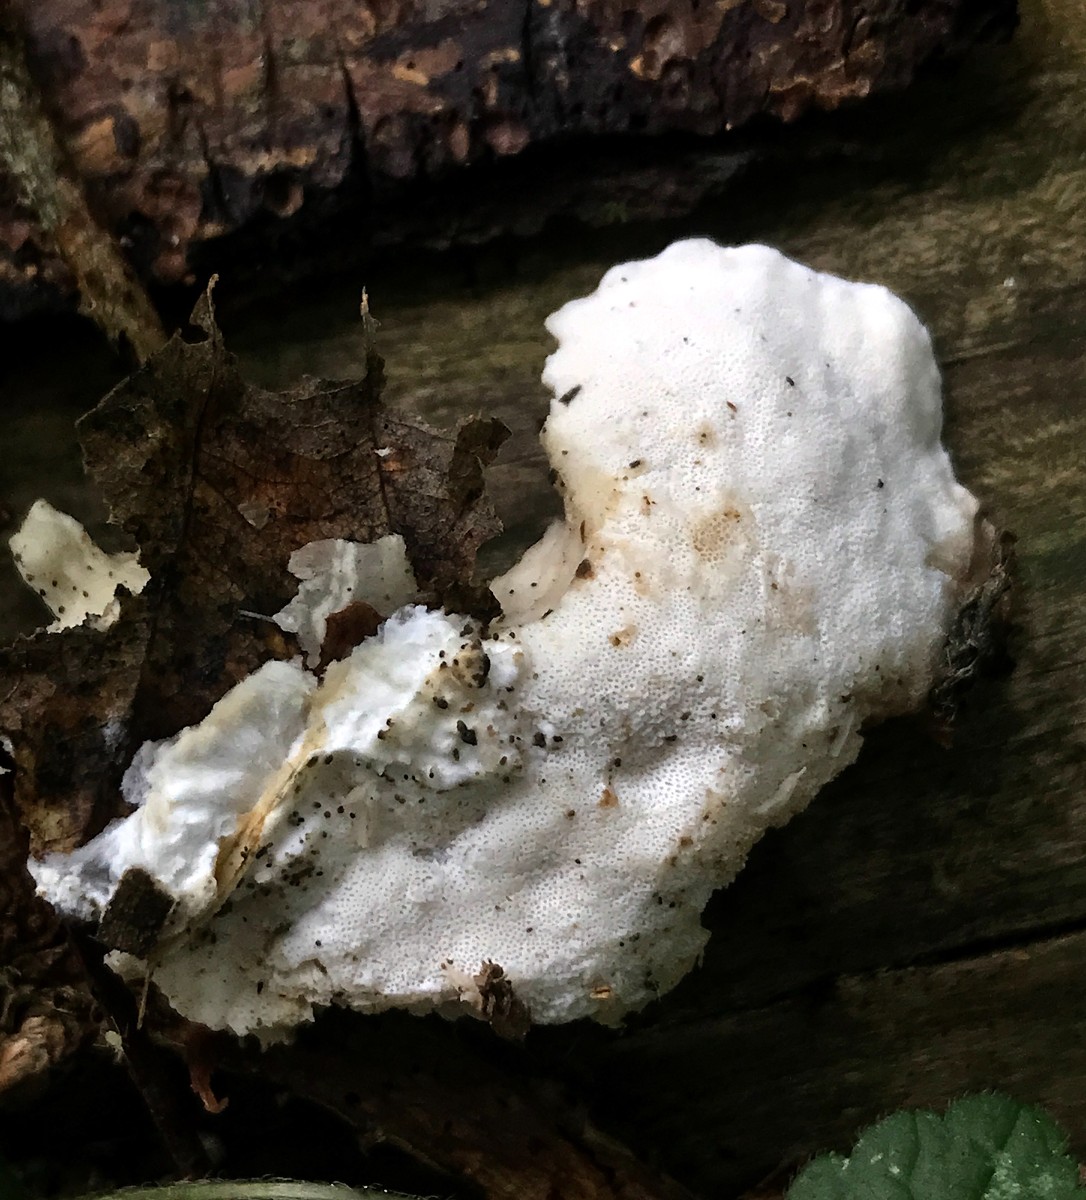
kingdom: Fungi
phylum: Basidiomycota
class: Agaricomycetes
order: Polyporales
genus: Amaropostia
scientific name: Amaropostia stiptica
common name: bitter kødporesvamp
